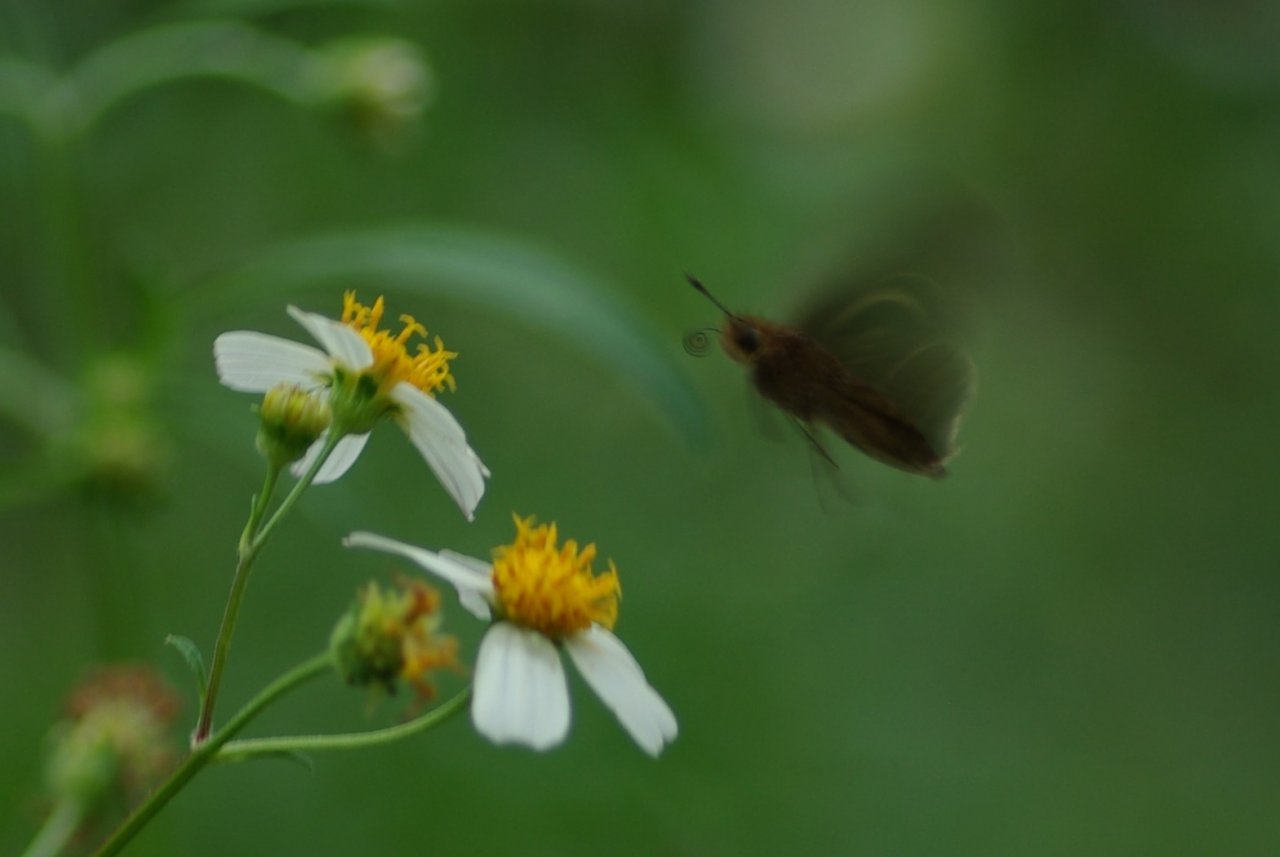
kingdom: Animalia
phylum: Arthropoda
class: Insecta
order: Lepidoptera
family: Hesperiidae
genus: Panoquina
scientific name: Panoquina ocola
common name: Ocola Skipper
